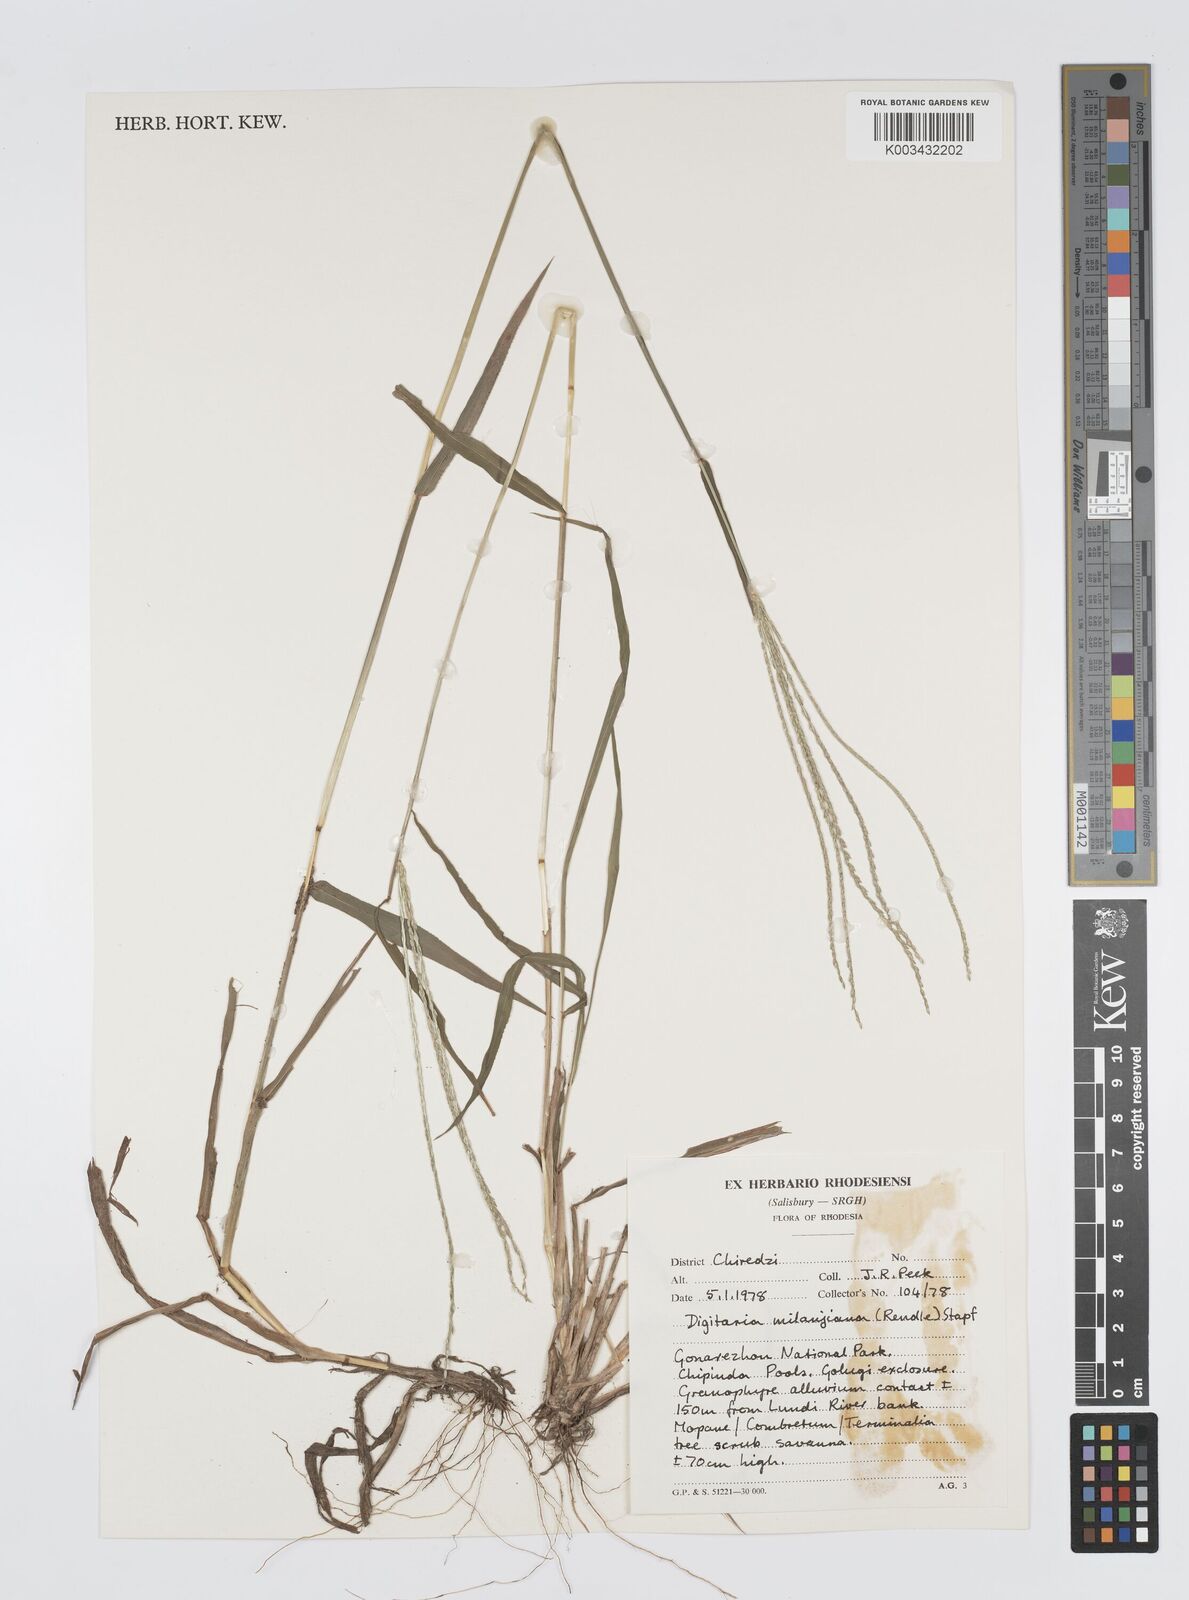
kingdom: Plantae
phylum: Tracheophyta
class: Liliopsida
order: Poales
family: Poaceae
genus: Digitaria
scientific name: Digitaria milanjiana
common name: Madagascar crabgrass
